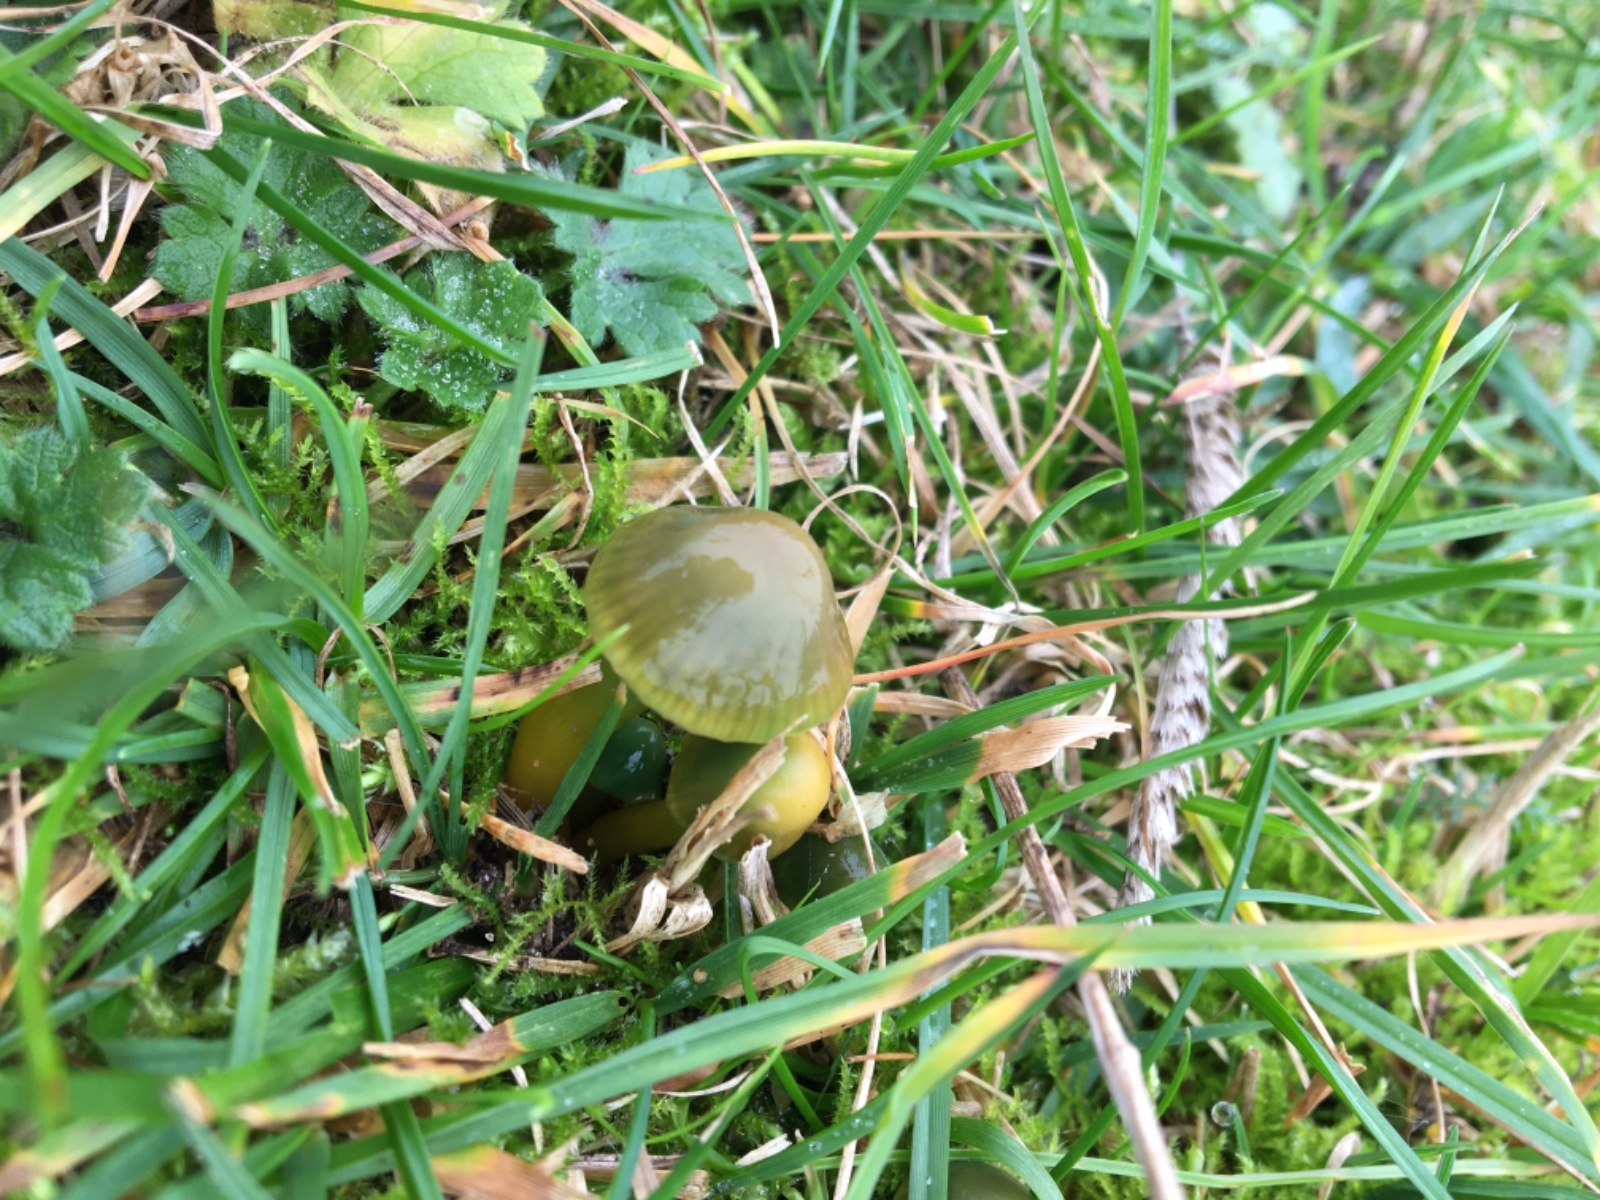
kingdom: Fungi
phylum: Basidiomycota
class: Agaricomycetes
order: Agaricales
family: Hygrophoraceae
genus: Gliophorus
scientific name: Gliophorus psittacinus
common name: papegøje-vokshat
